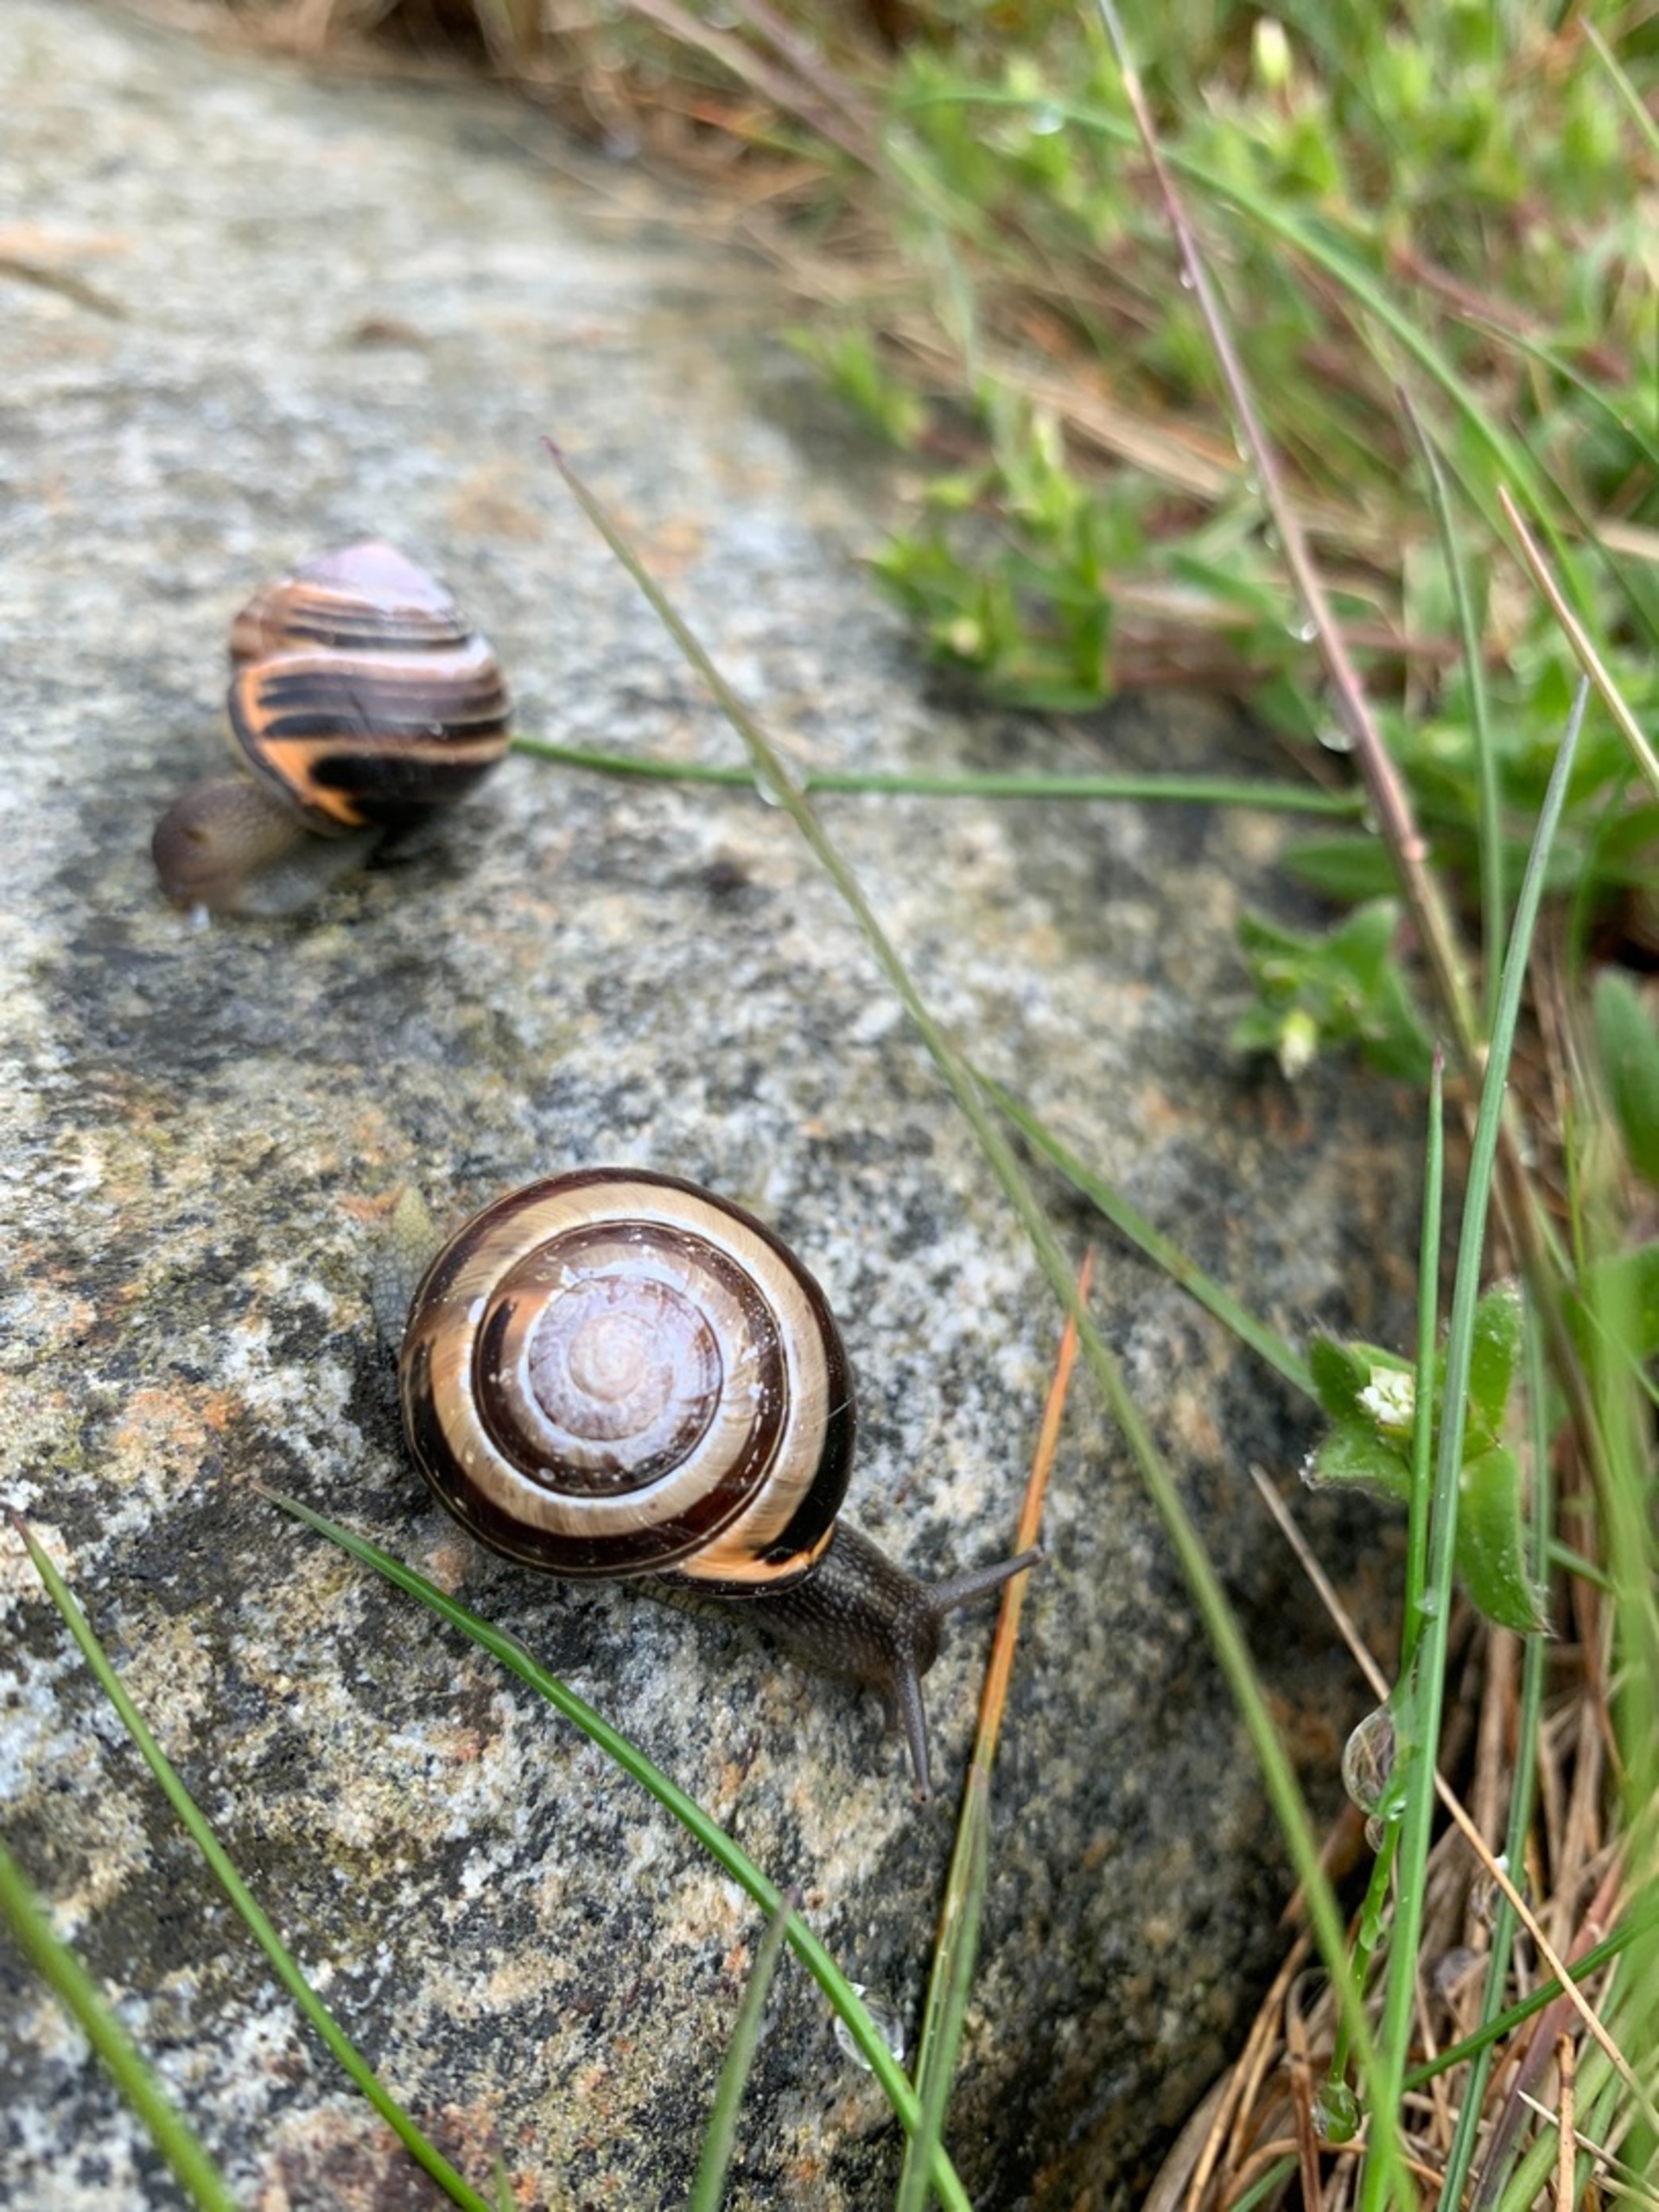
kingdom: Animalia
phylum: Mollusca
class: Gastropoda
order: Stylommatophora
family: Helicidae
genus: Cepaea
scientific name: Cepaea nemoralis
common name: Lundsnegl
